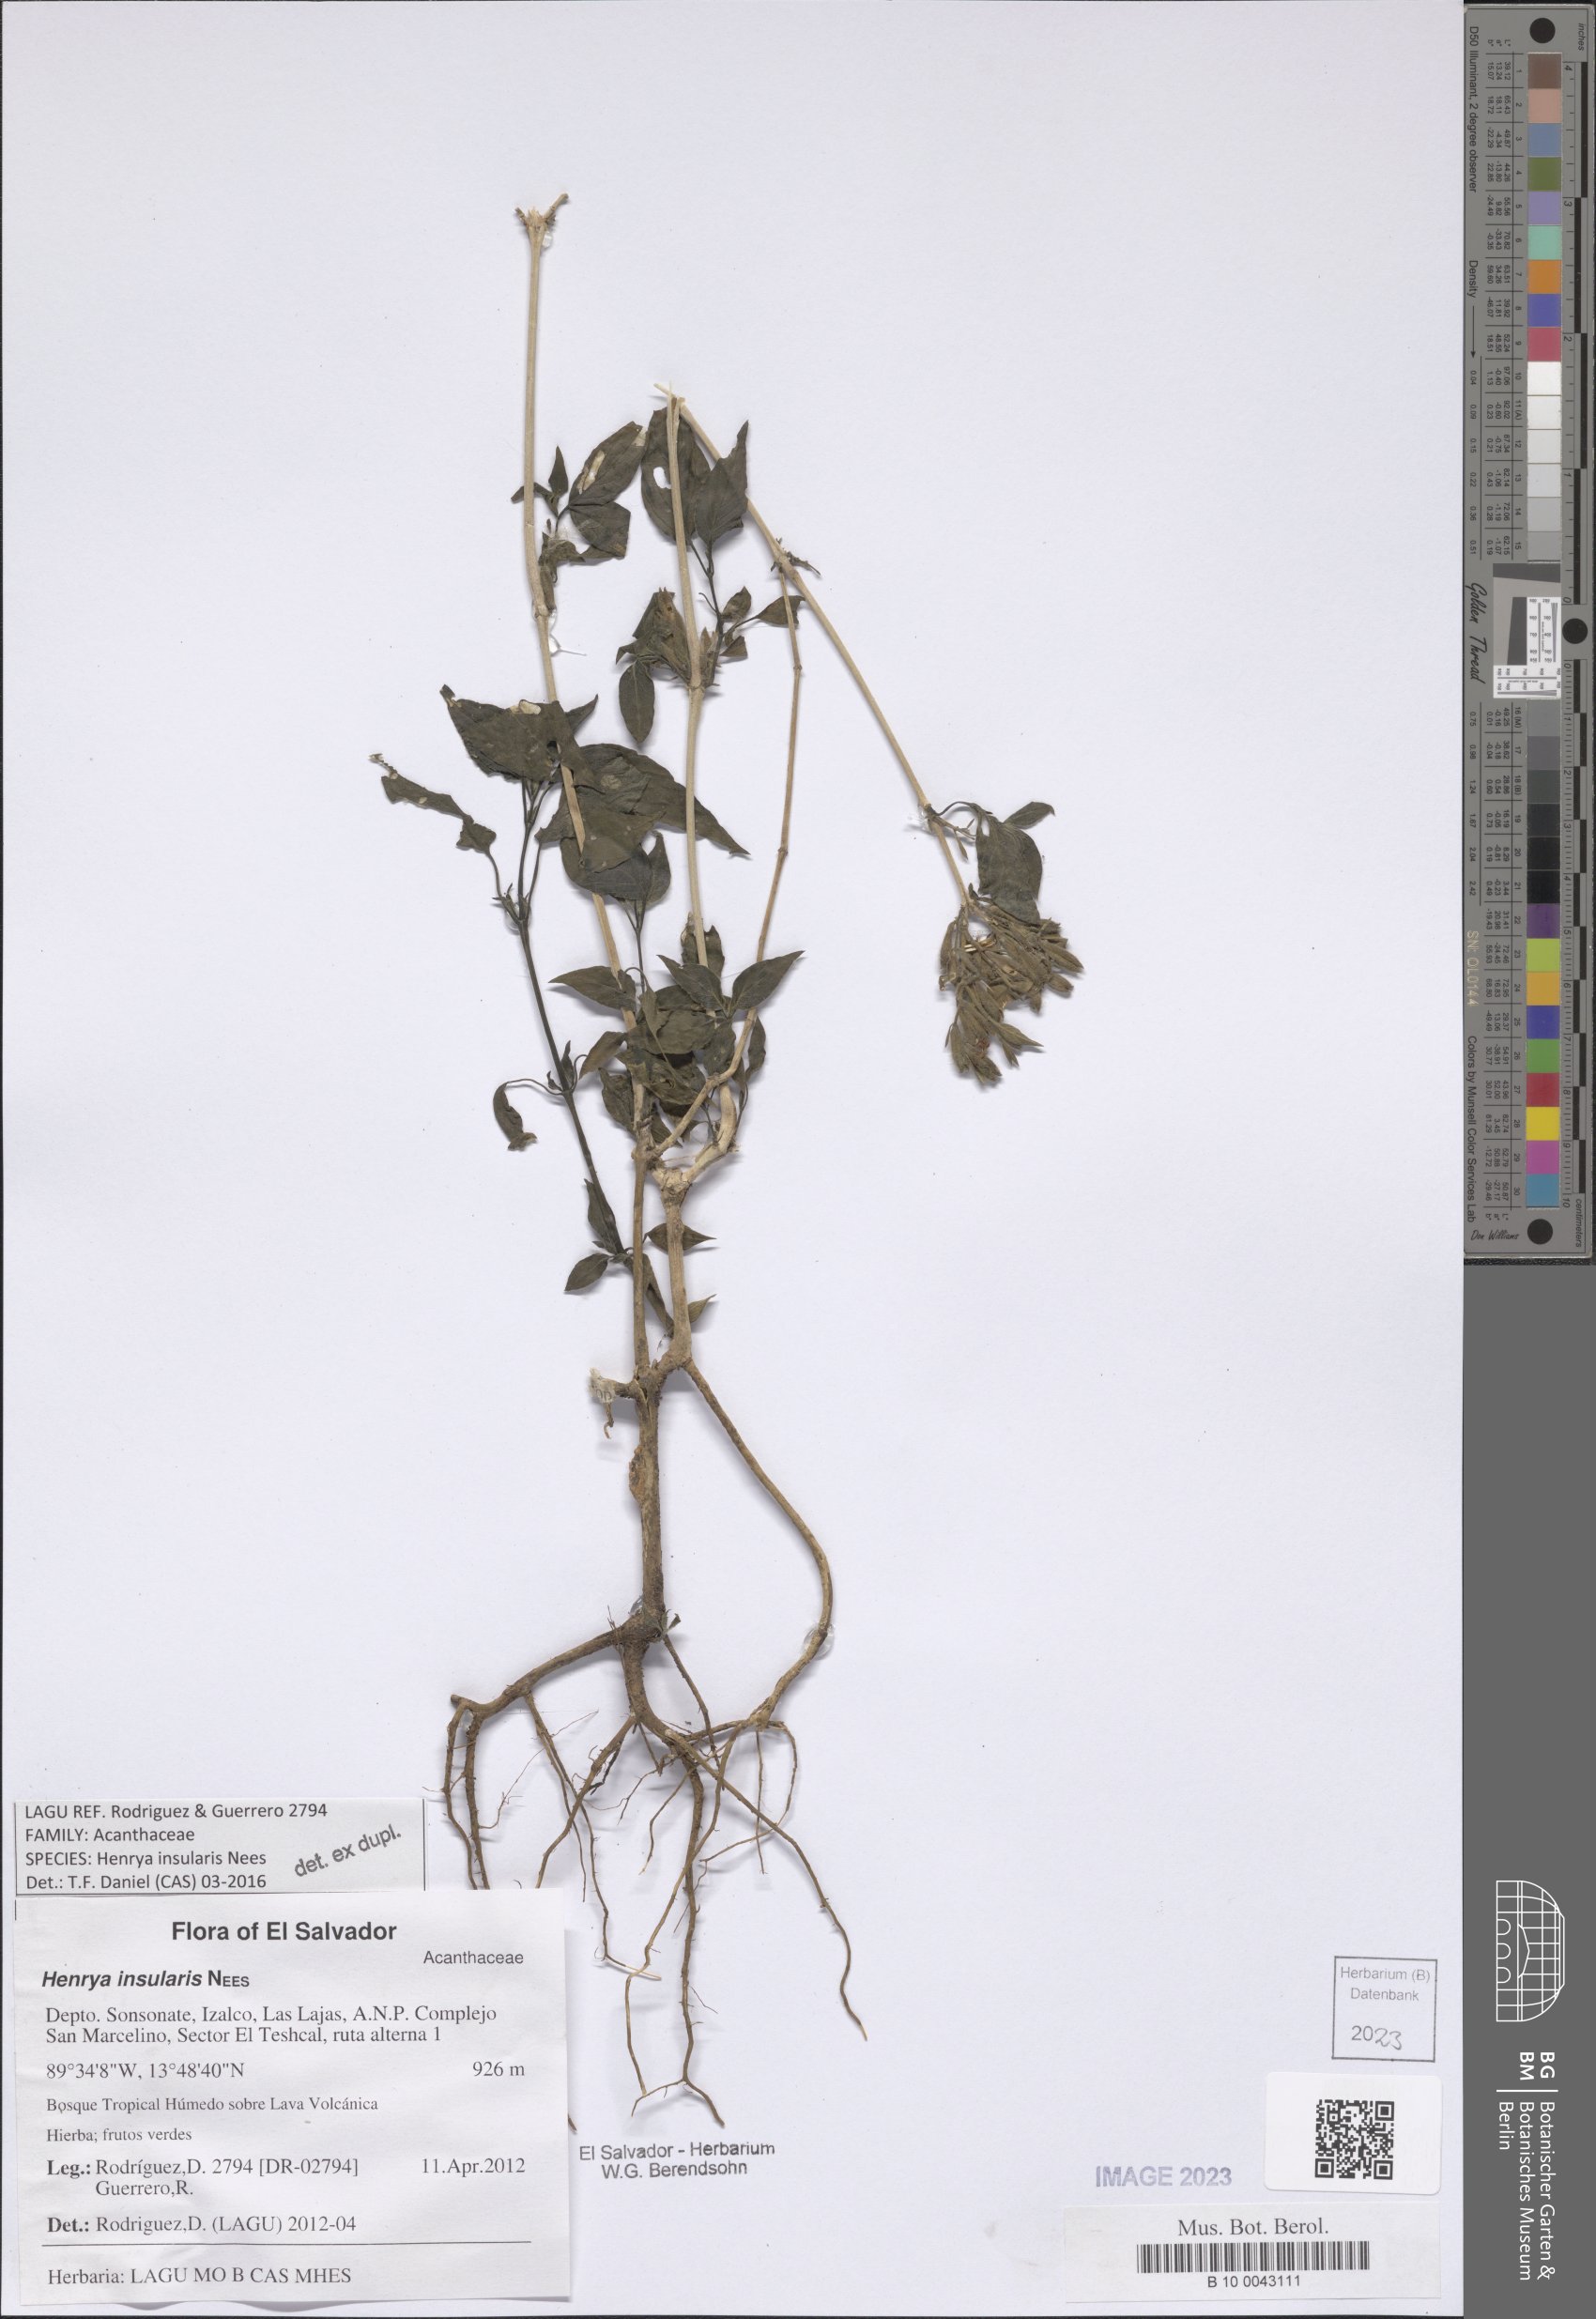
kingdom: Plantae
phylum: Tracheophyta
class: Magnoliopsida
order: Lamiales
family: Acanthaceae
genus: Henrya
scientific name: Henrya insularis
